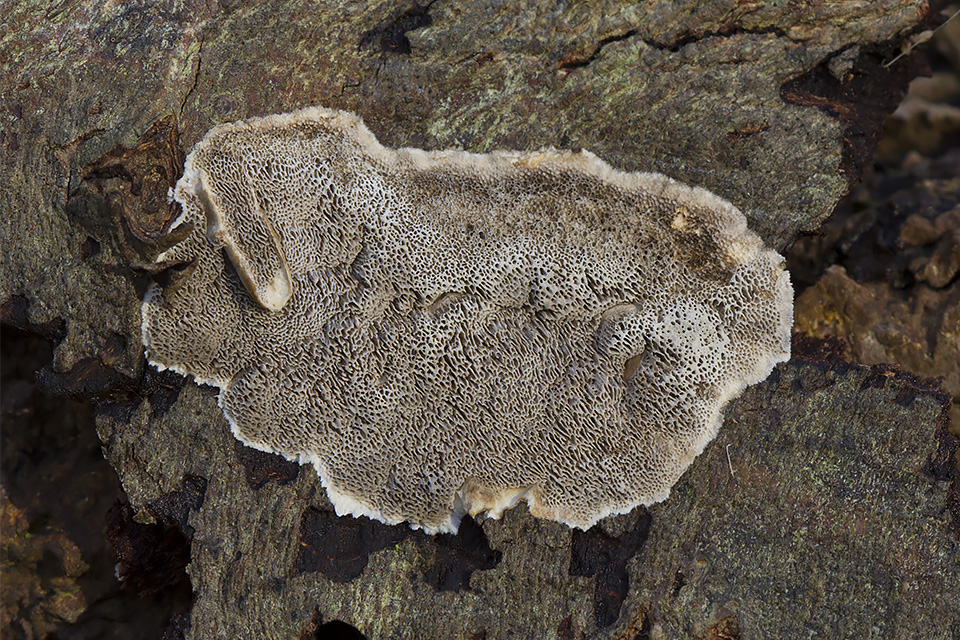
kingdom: Fungi
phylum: Basidiomycota
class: Agaricomycetes
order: Polyporales
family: Phanerochaetaceae
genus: Bjerkandera
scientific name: Bjerkandera adusta
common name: sveden sodporesvamp
